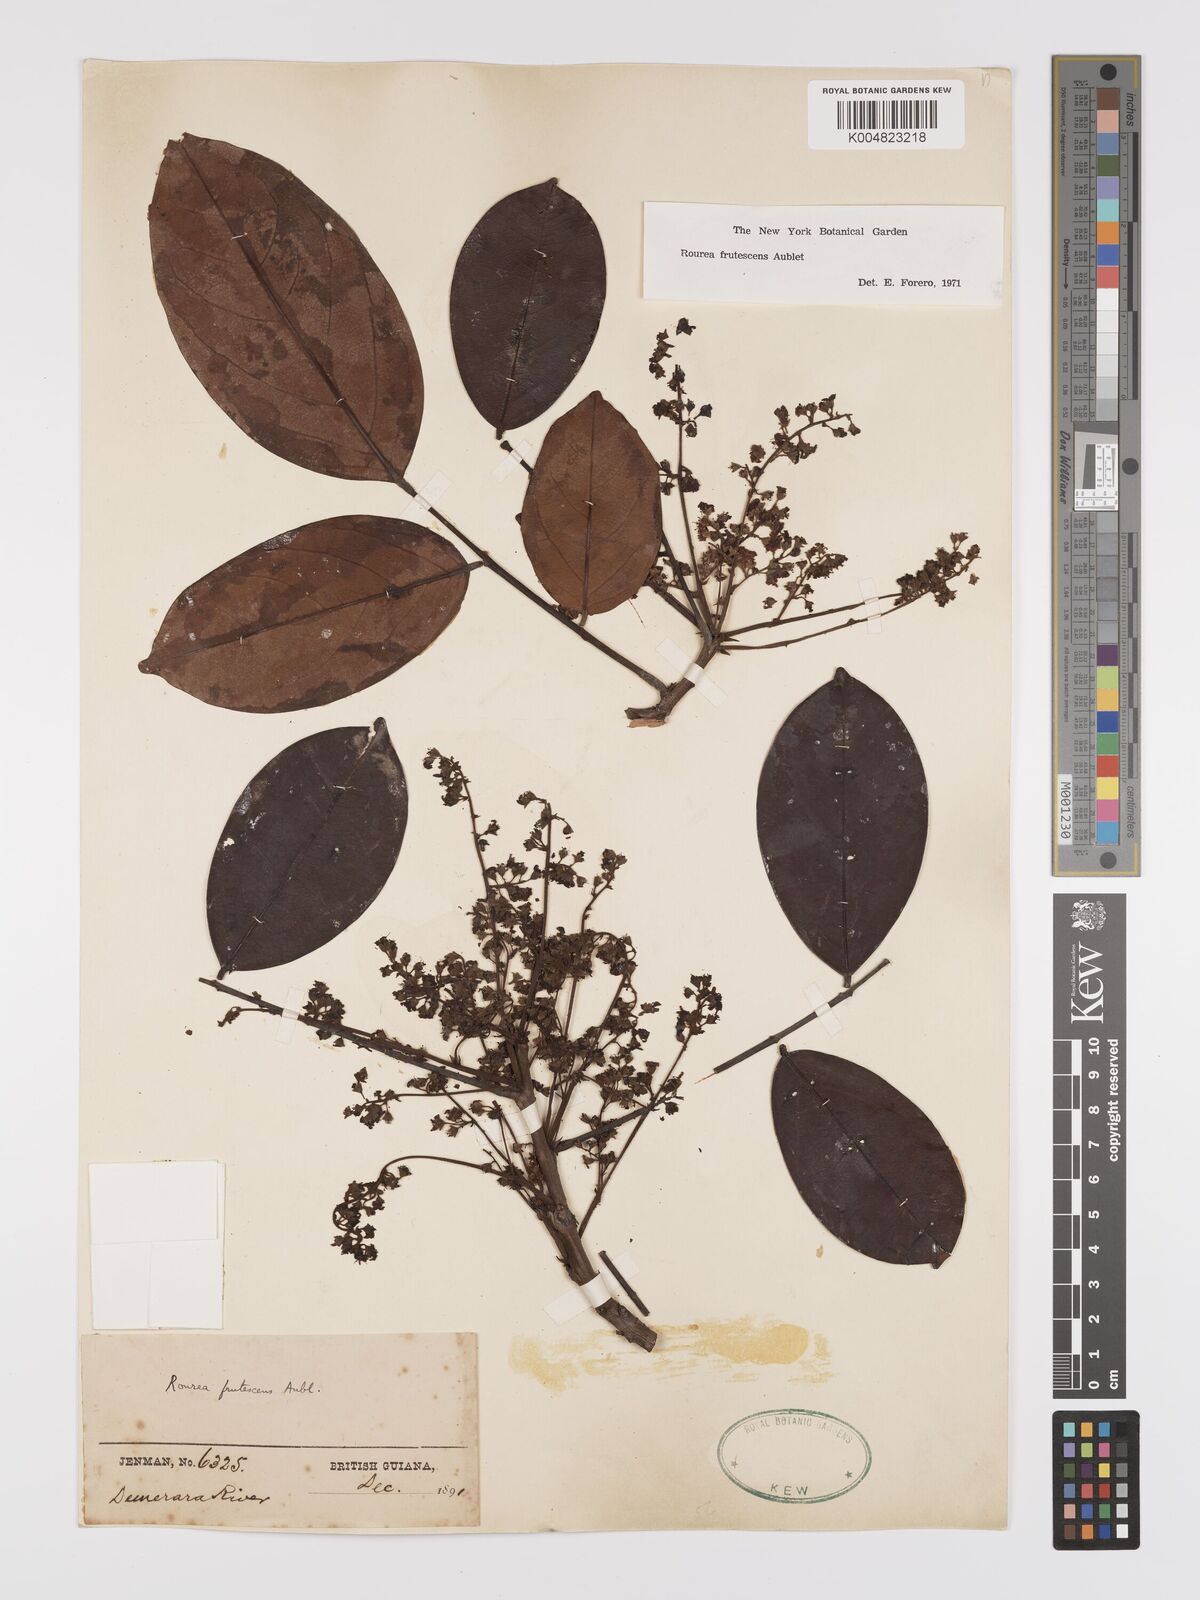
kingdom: Plantae
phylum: Tracheophyta
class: Magnoliopsida
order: Oxalidales
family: Connaraceae
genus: Rourea
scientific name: Rourea frutescens
